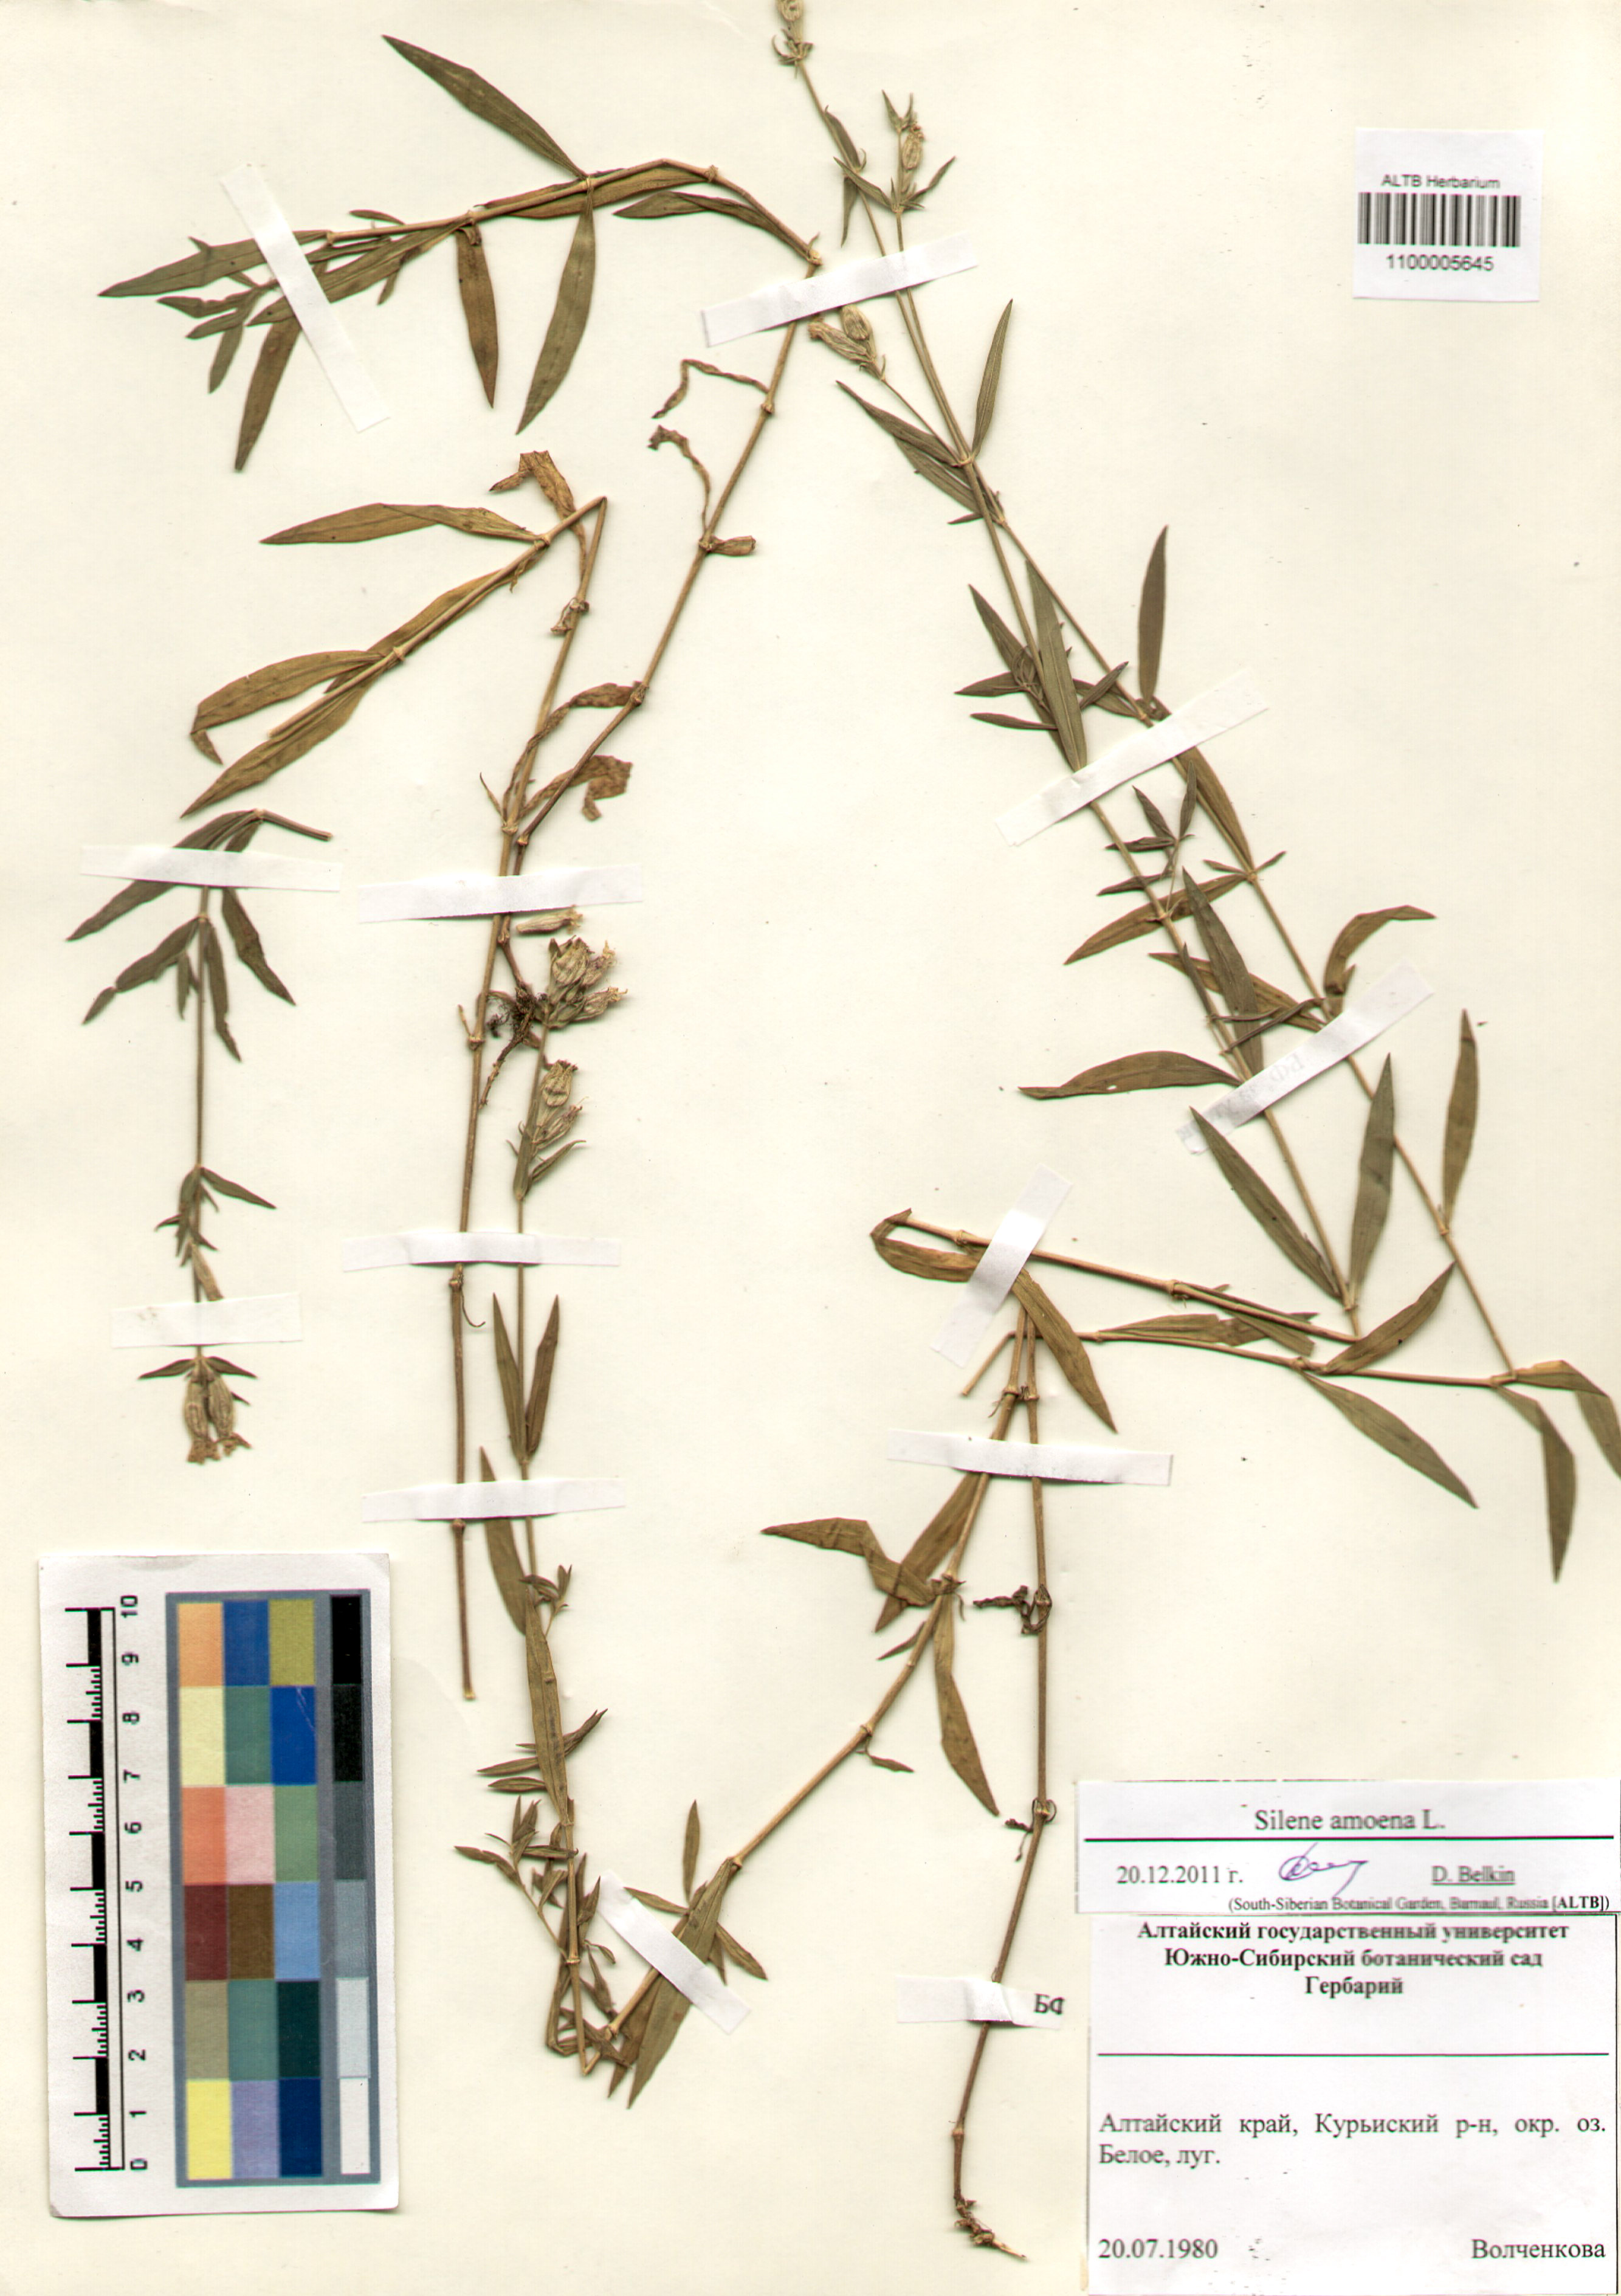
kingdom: Plantae
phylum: Tracheophyta
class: Magnoliopsida
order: Caryophyllales
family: Caryophyllaceae
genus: Silene
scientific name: Silene amoena
